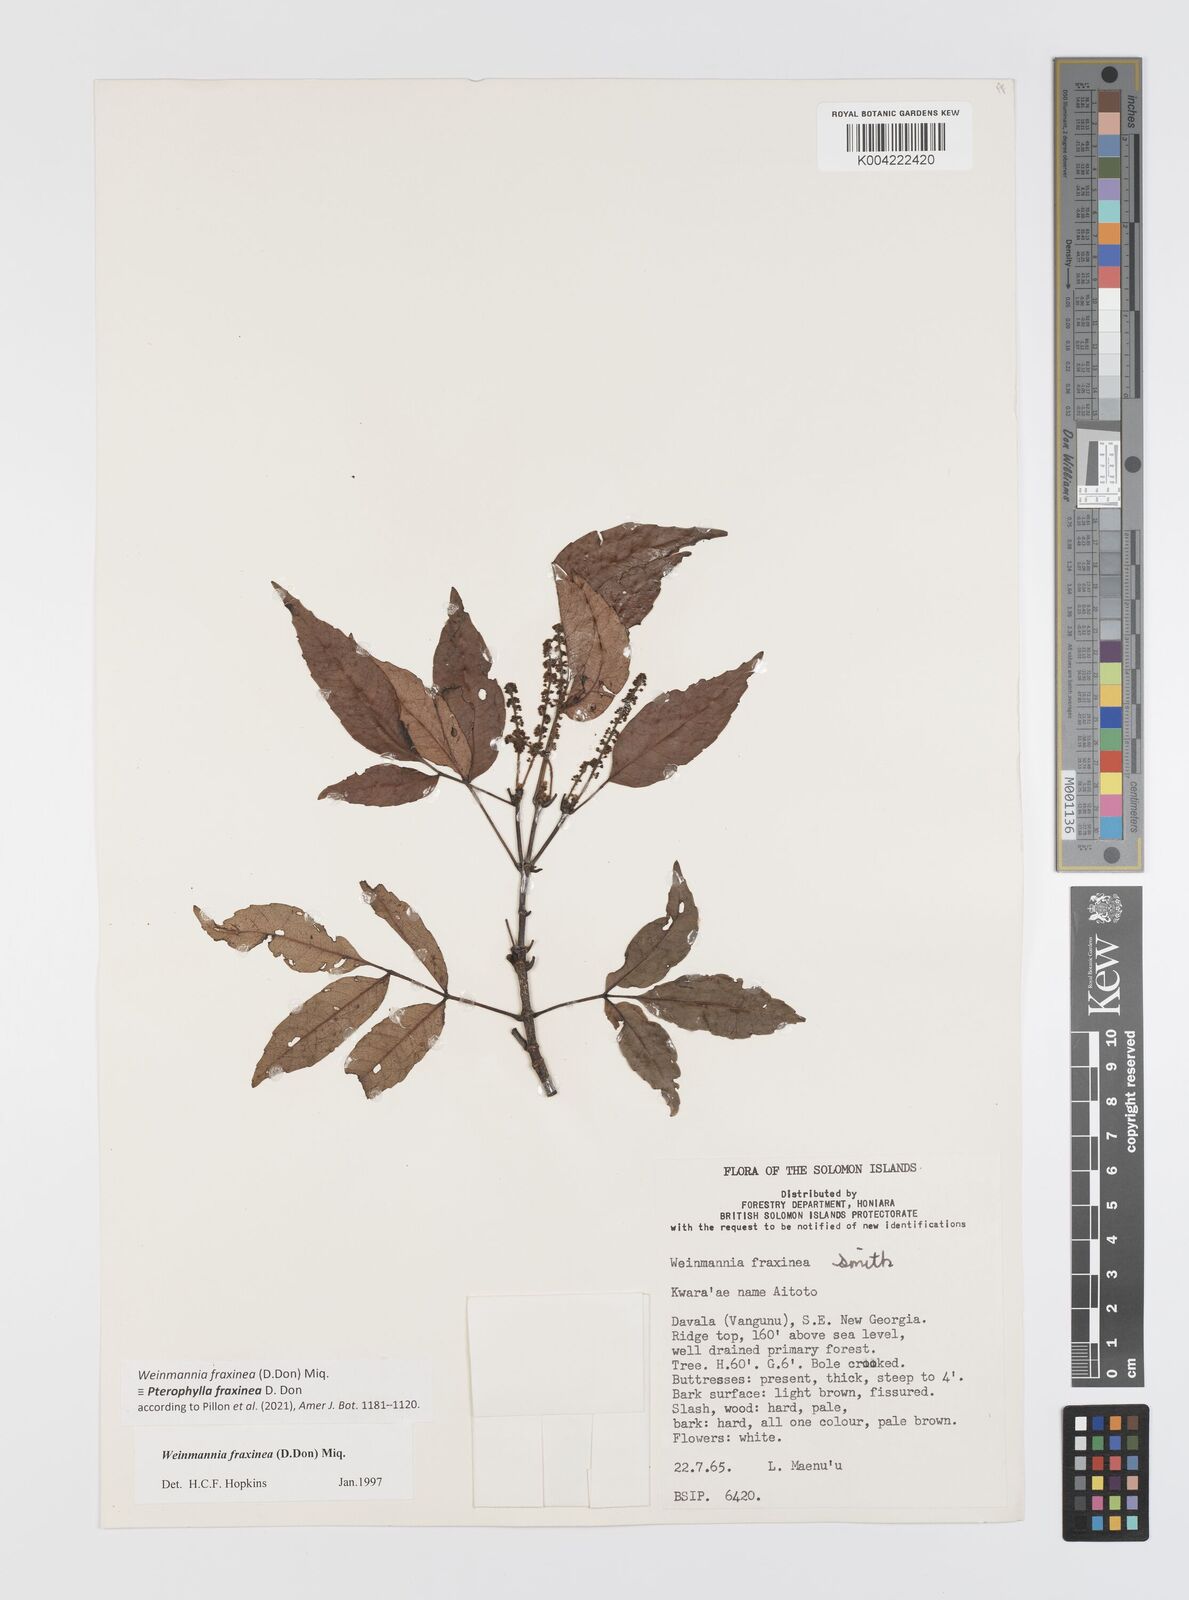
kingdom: Plantae
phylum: Tracheophyta
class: Magnoliopsida
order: Oxalidales
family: Cunoniaceae
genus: Pterophylla
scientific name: Pterophylla fraxinea
